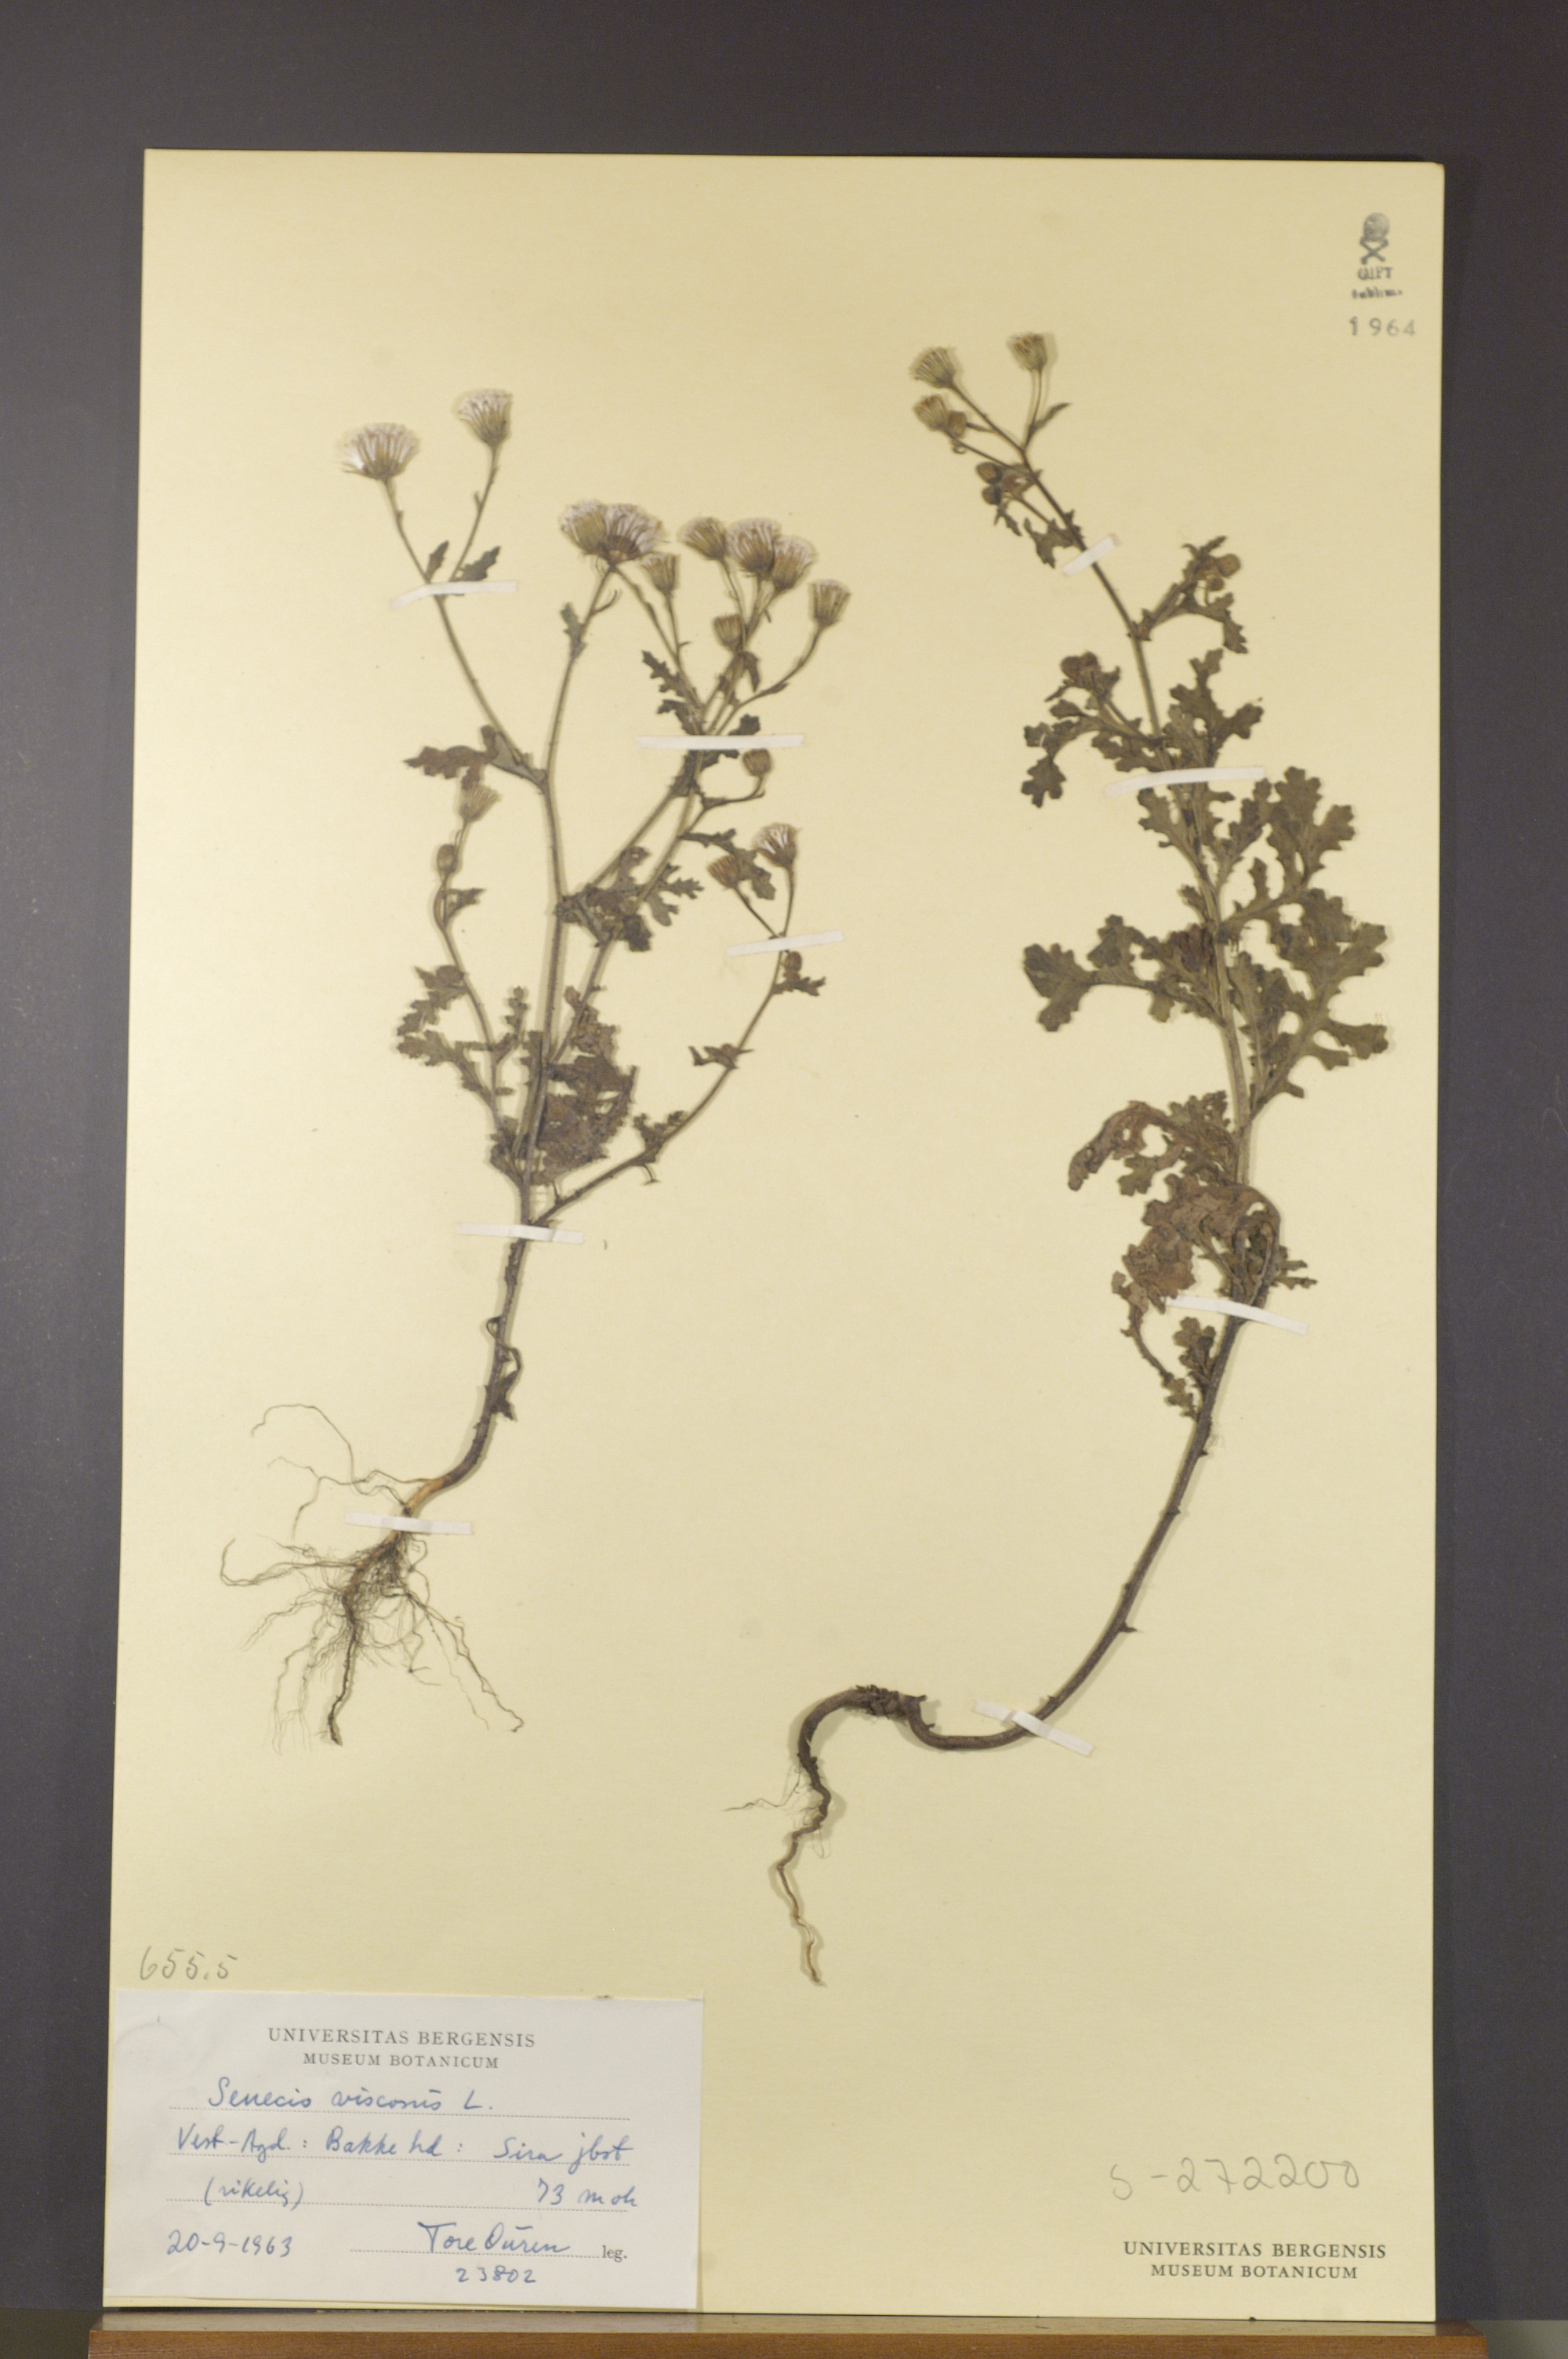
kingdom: Plantae
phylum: Tracheophyta
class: Magnoliopsida
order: Asterales
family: Asteraceae
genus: Senecio
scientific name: Senecio viscosus
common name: Sticky groundsel
